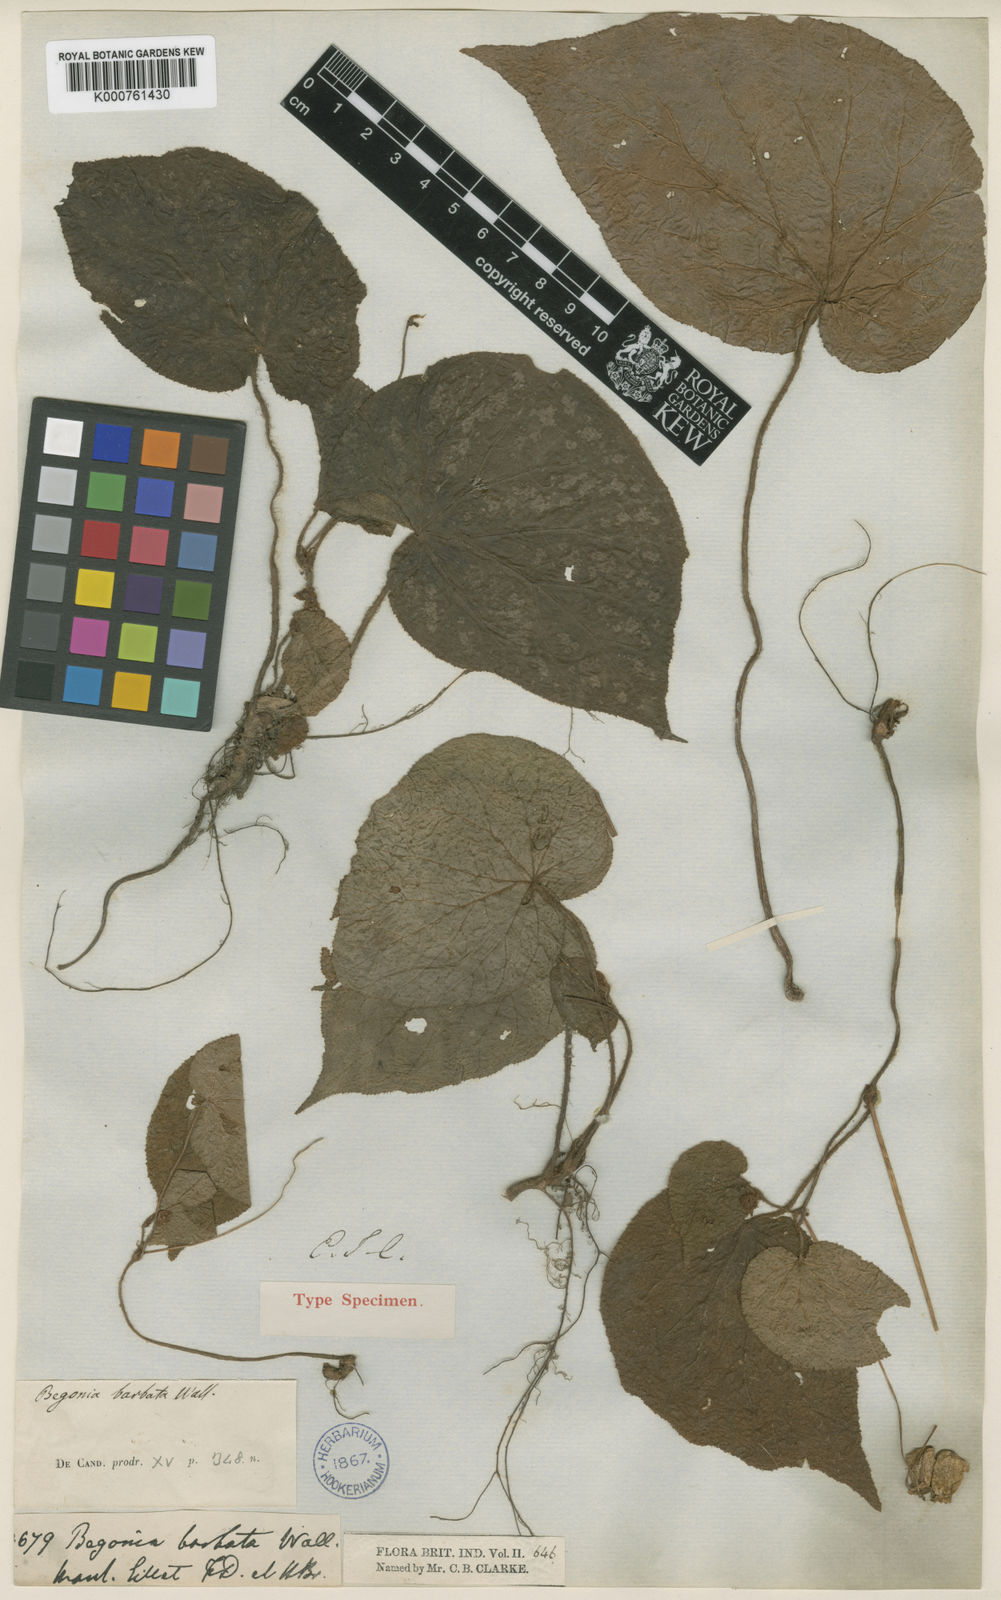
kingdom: Plantae
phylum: Tracheophyta
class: Magnoliopsida
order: Cucurbitales
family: Begoniaceae
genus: Begonia
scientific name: Begonia
